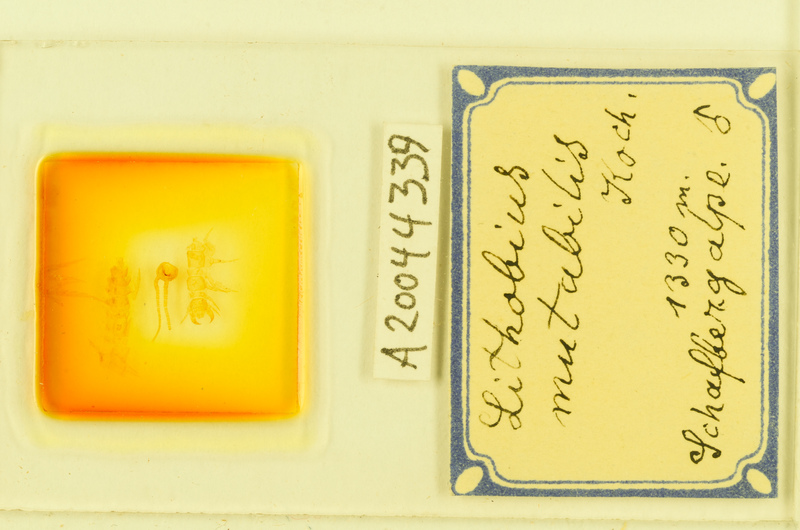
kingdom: Animalia
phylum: Arthropoda
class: Chilopoda
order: Lithobiomorpha
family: Lithobiidae
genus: Lithobius
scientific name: Lithobius mutabilis
